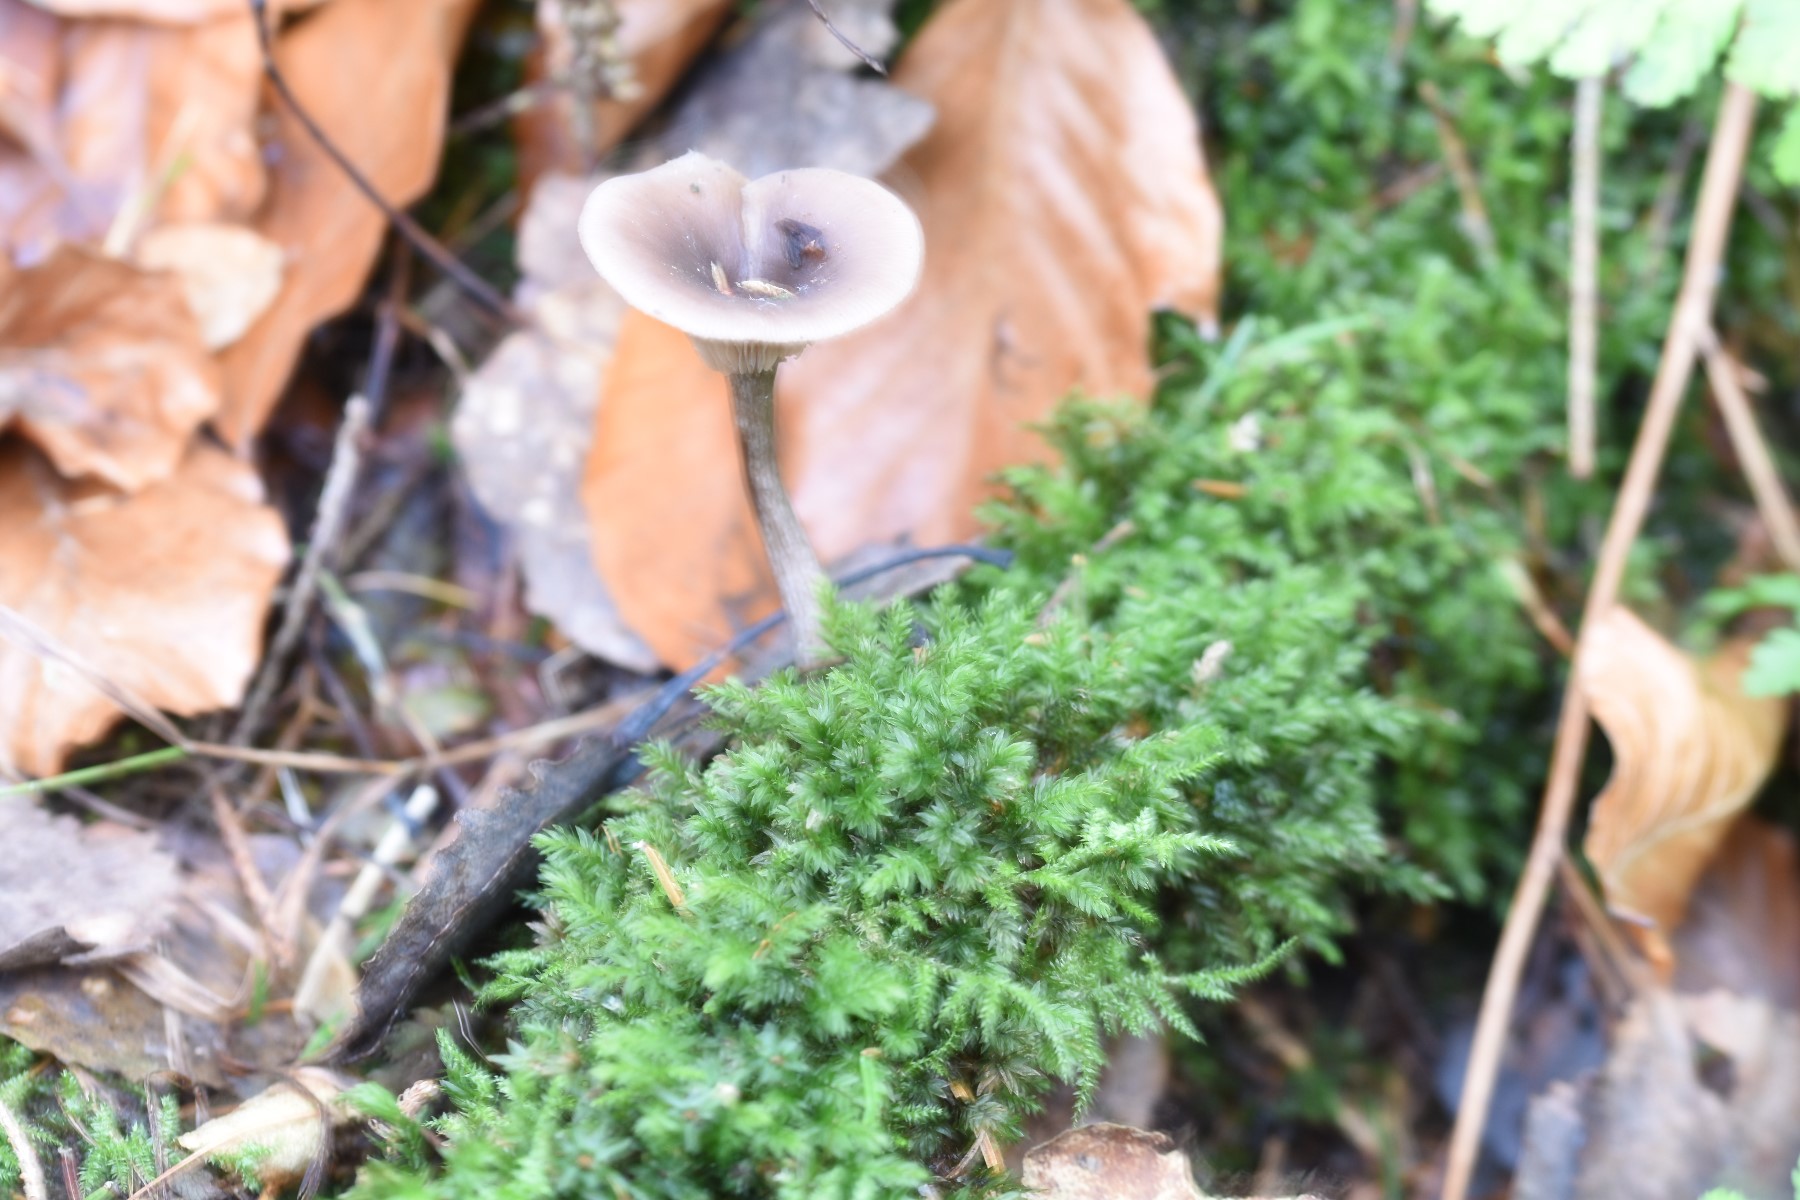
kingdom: Fungi
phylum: Basidiomycota
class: Agaricomycetes
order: Agaricales
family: Pseudoclitocybaceae
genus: Pseudoclitocybe
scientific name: Pseudoclitocybe cyathiformis
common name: almindelig bægertragthat
